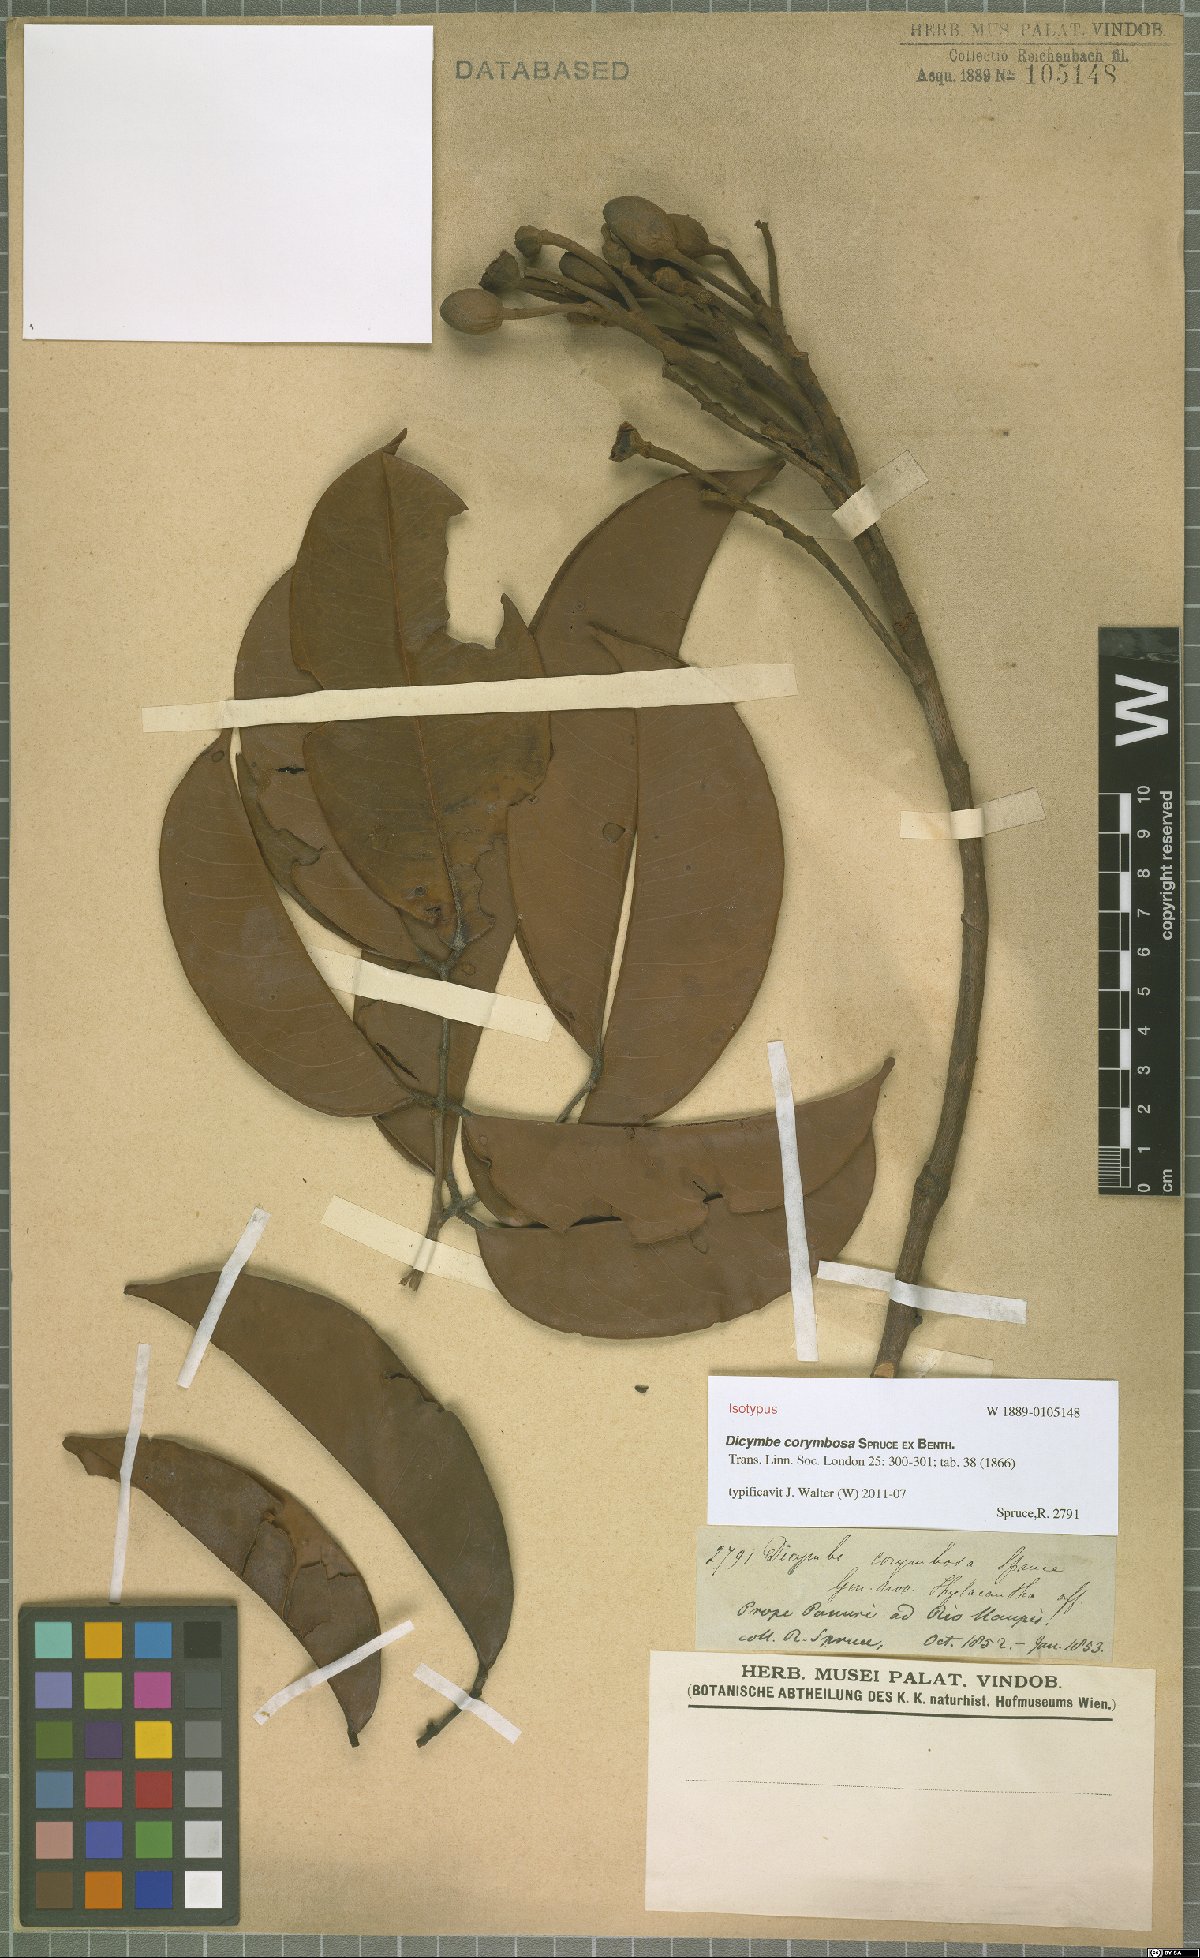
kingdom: Plantae
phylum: Tracheophyta
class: Magnoliopsida
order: Fabales
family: Fabaceae
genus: Dicymbe
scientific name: Dicymbe corymbosa
